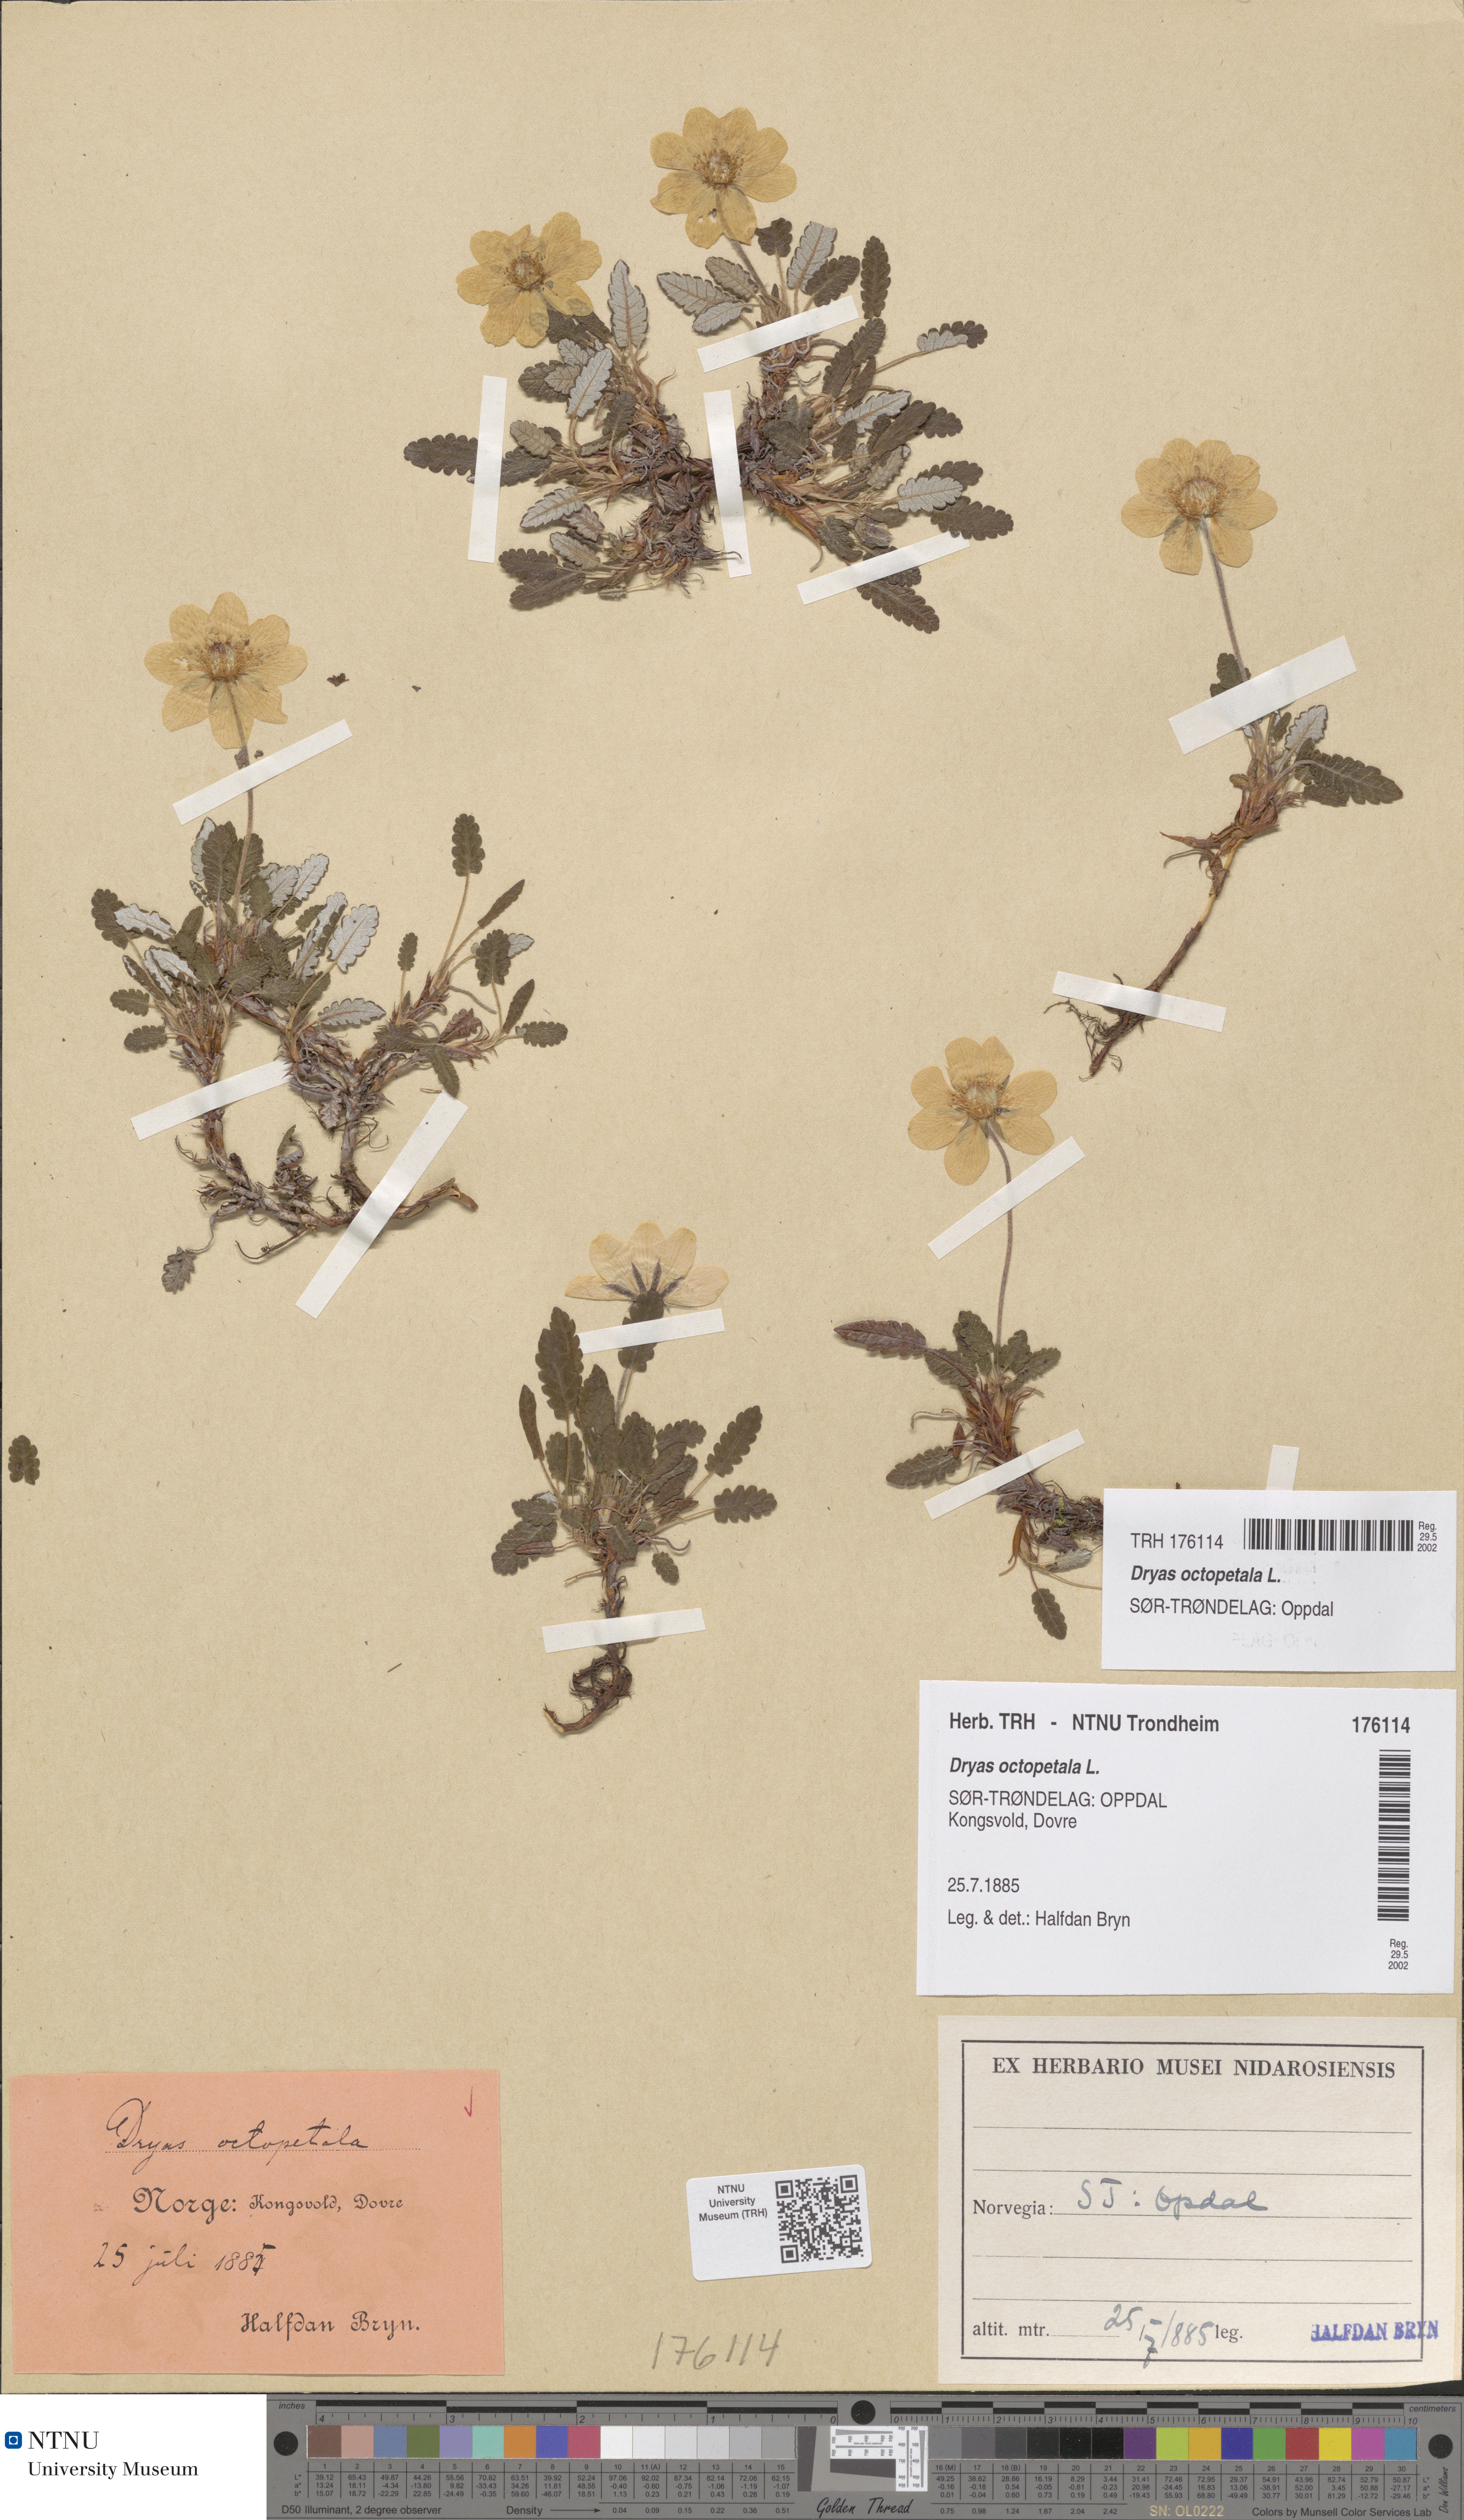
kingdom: Plantae
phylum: Tracheophyta
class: Magnoliopsida
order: Rosales
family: Rosaceae
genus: Dryas
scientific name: Dryas octopetala
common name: Eight-petal mountain-avens
